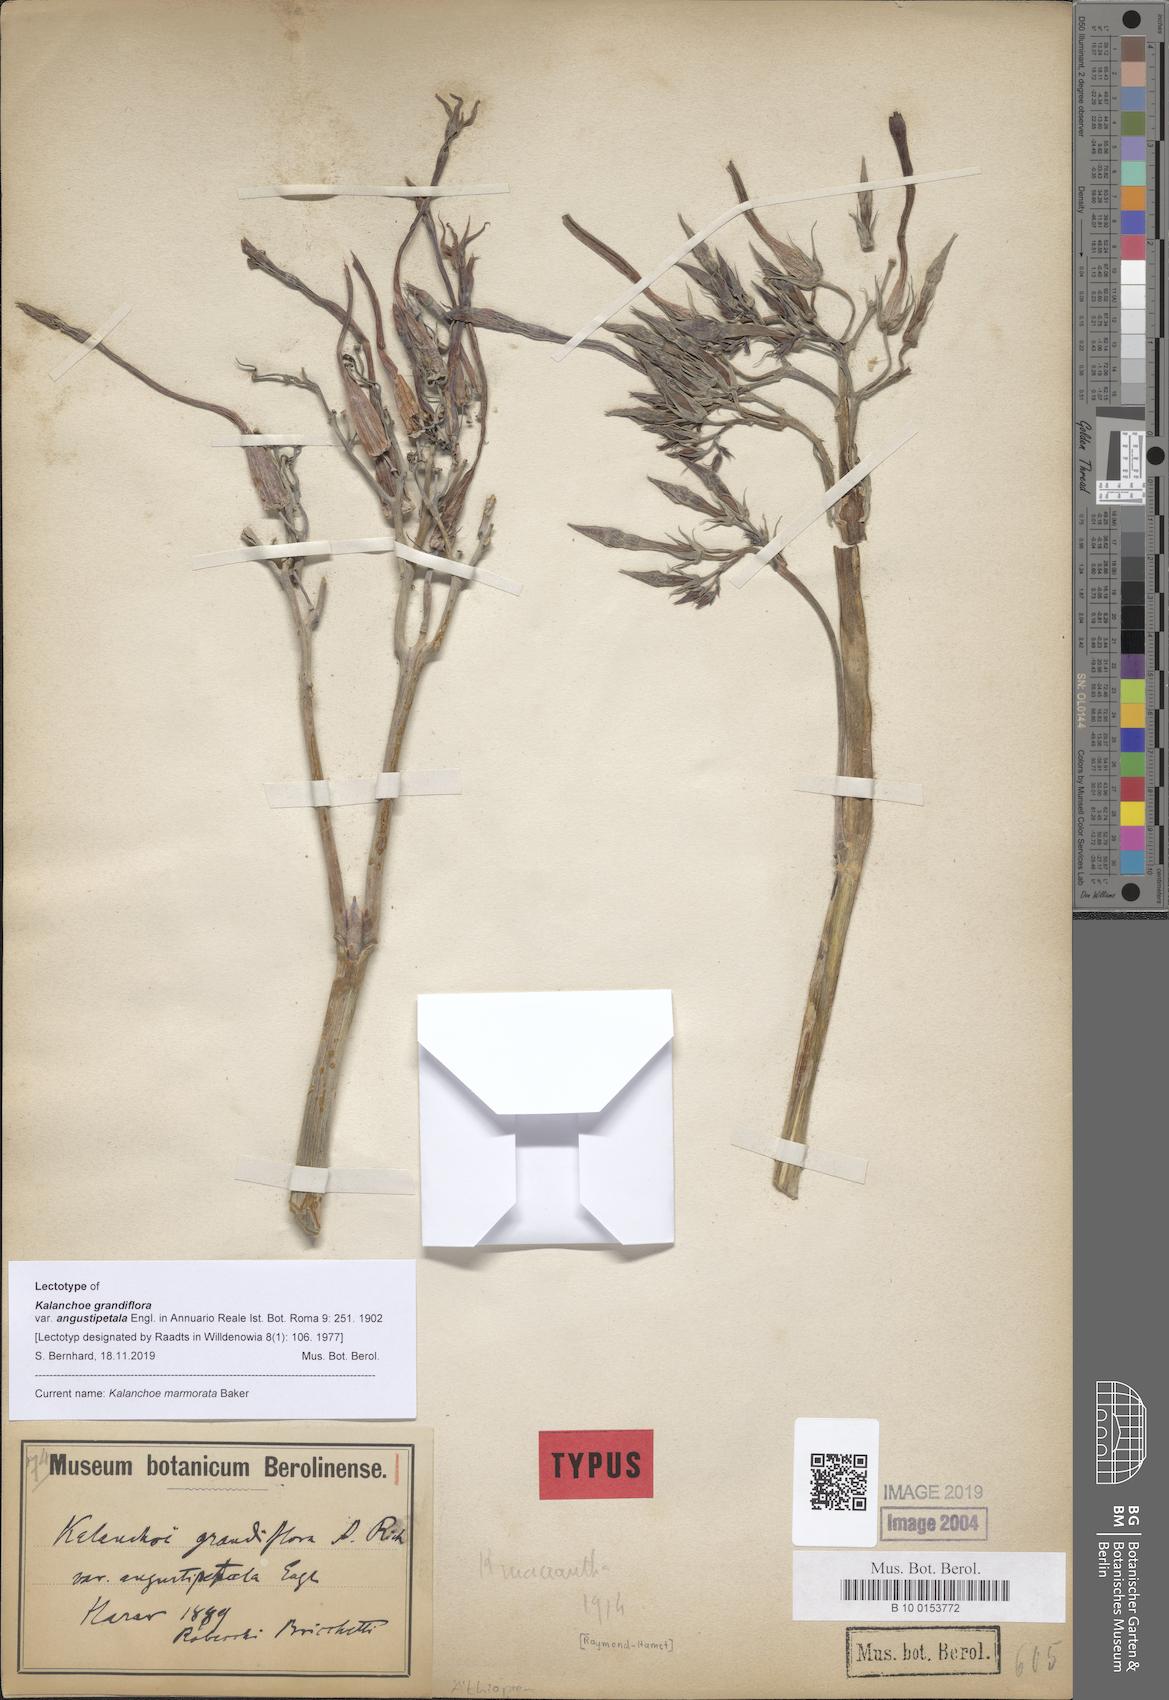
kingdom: Plantae
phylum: Tracheophyta
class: Magnoliopsida
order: Saxifragales
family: Crassulaceae
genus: Kalanchoe
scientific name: Kalanchoe marmorata
